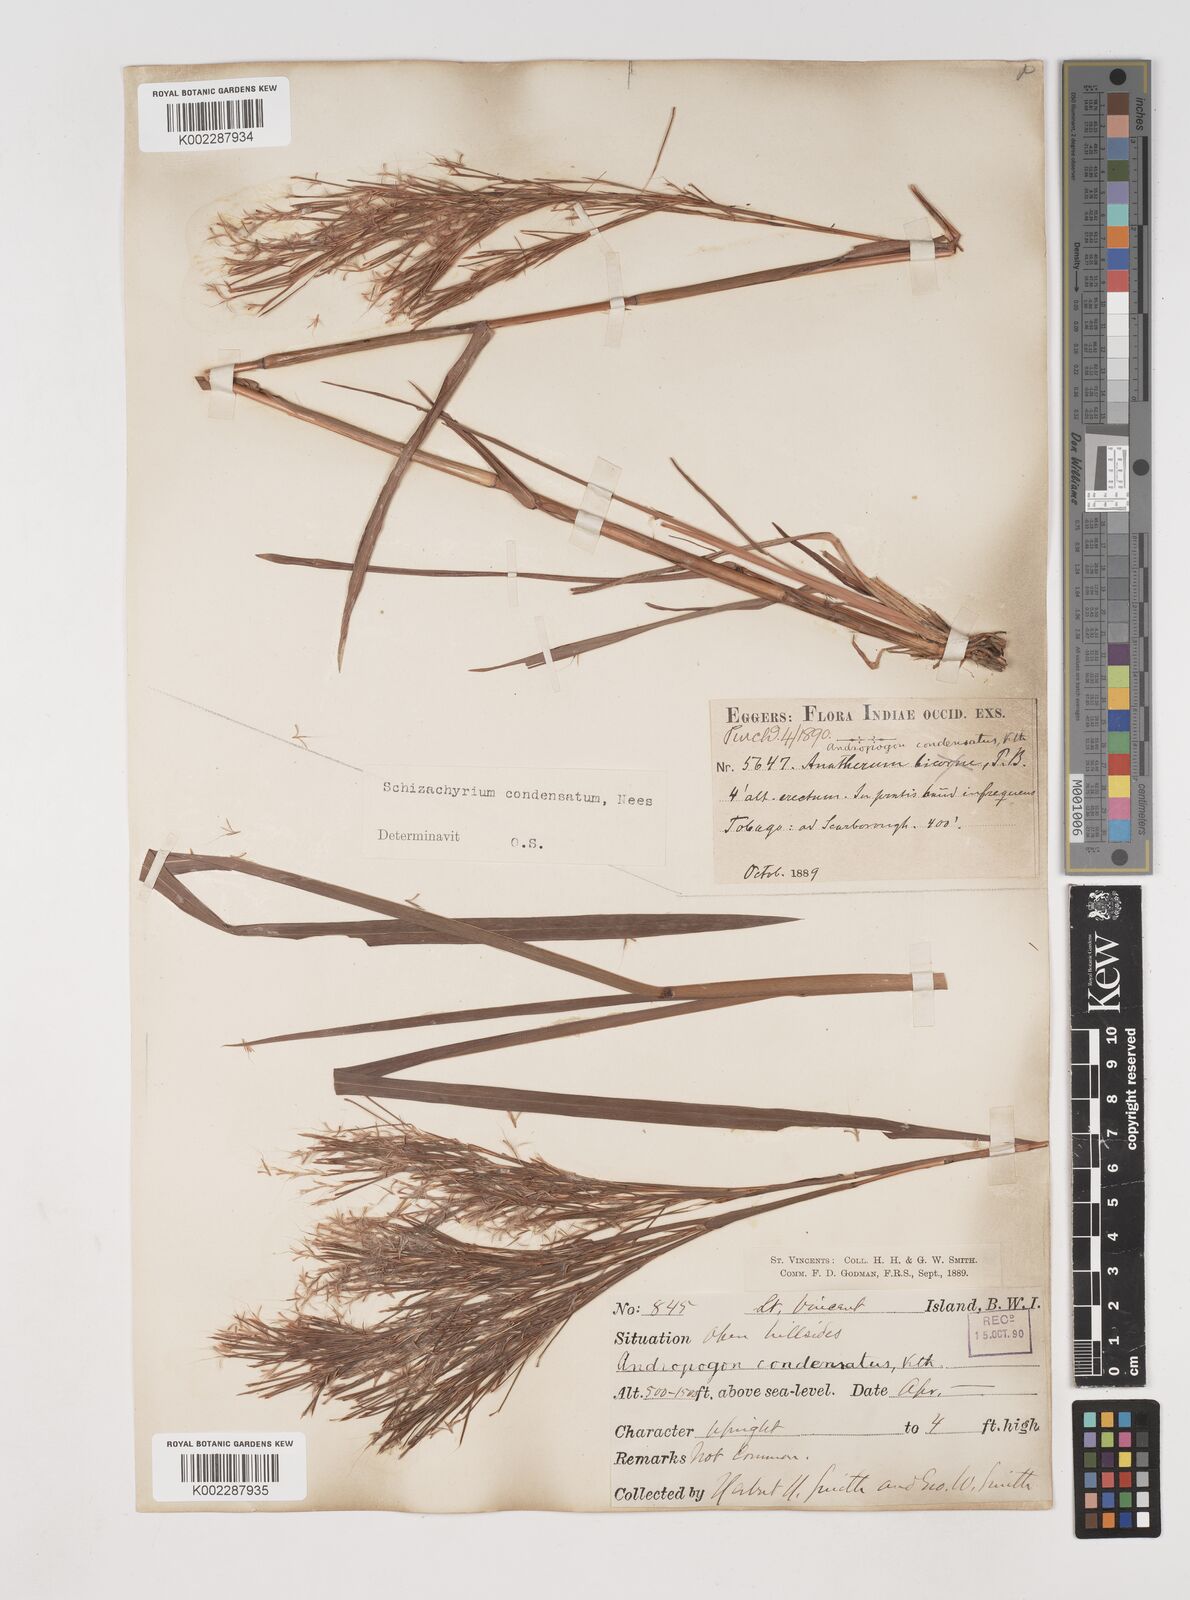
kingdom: Plantae
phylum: Tracheophyta
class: Liliopsida
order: Poales
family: Poaceae
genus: Schizachyrium
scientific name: Schizachyrium condensatum
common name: Bush beardgrass
